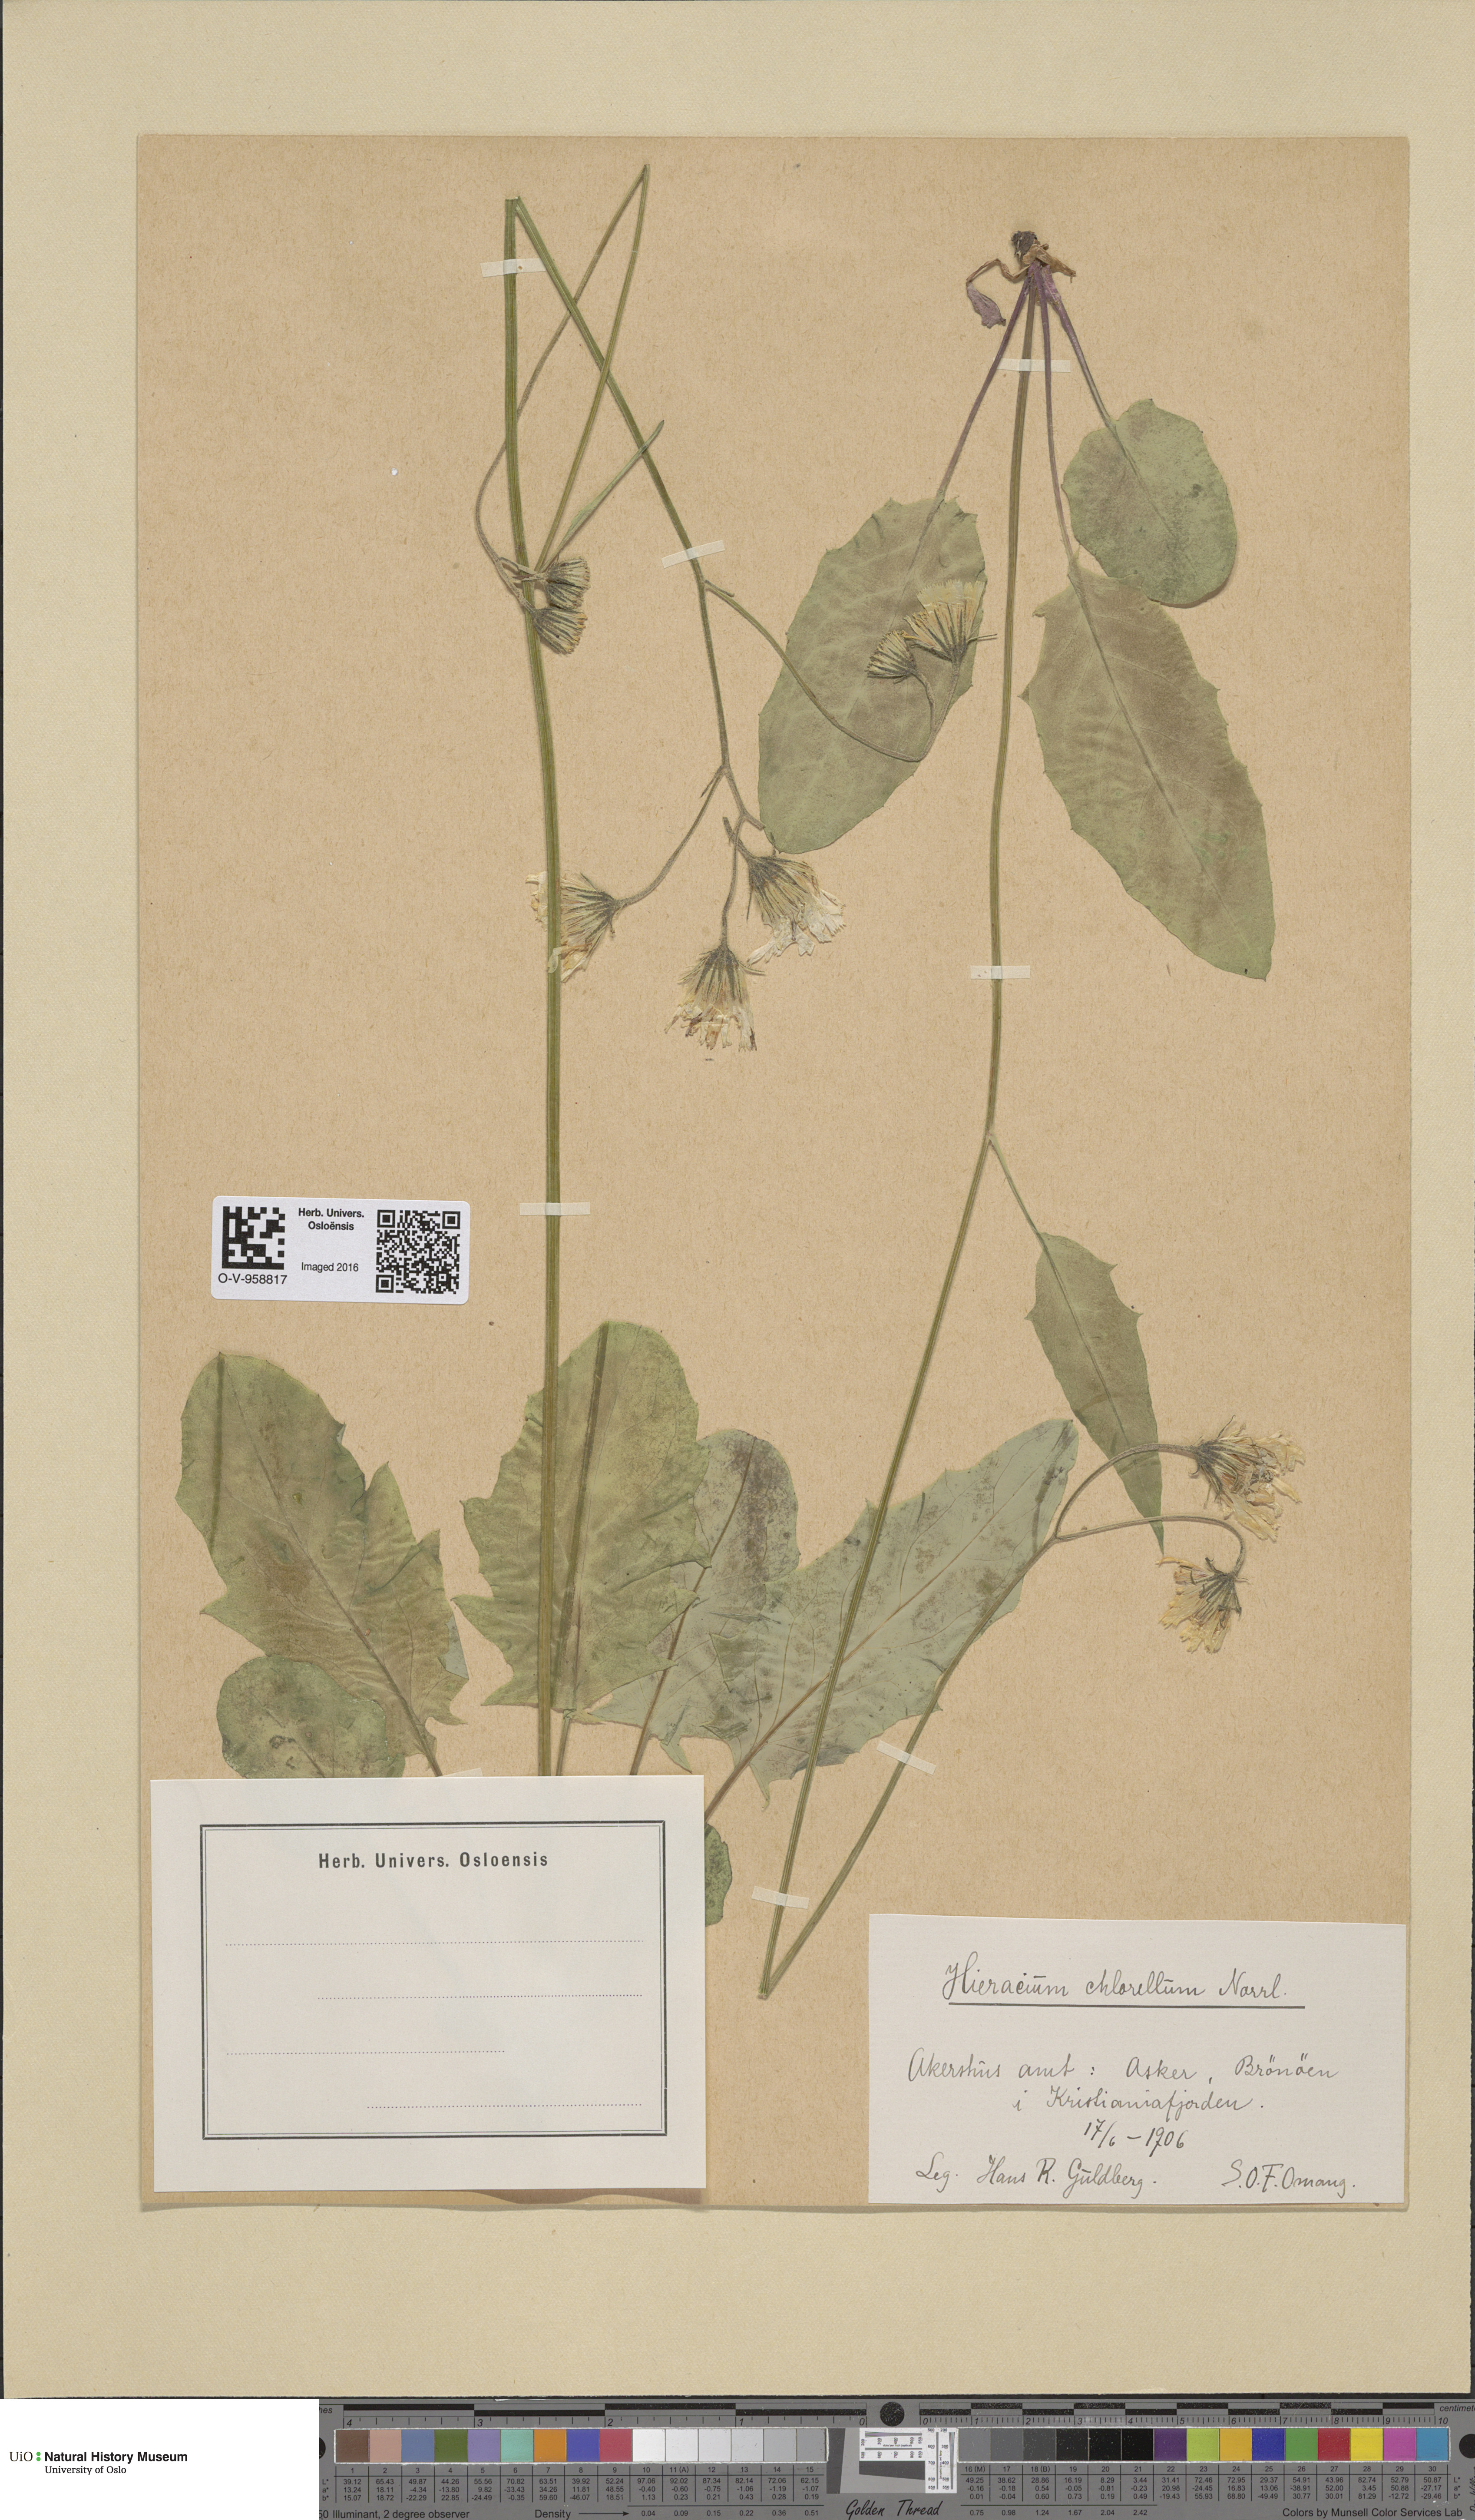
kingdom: Plantae
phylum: Tracheophyta
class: Magnoliopsida
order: Asterales
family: Asteraceae
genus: Hieracium
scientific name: Hieracium chlorellum
